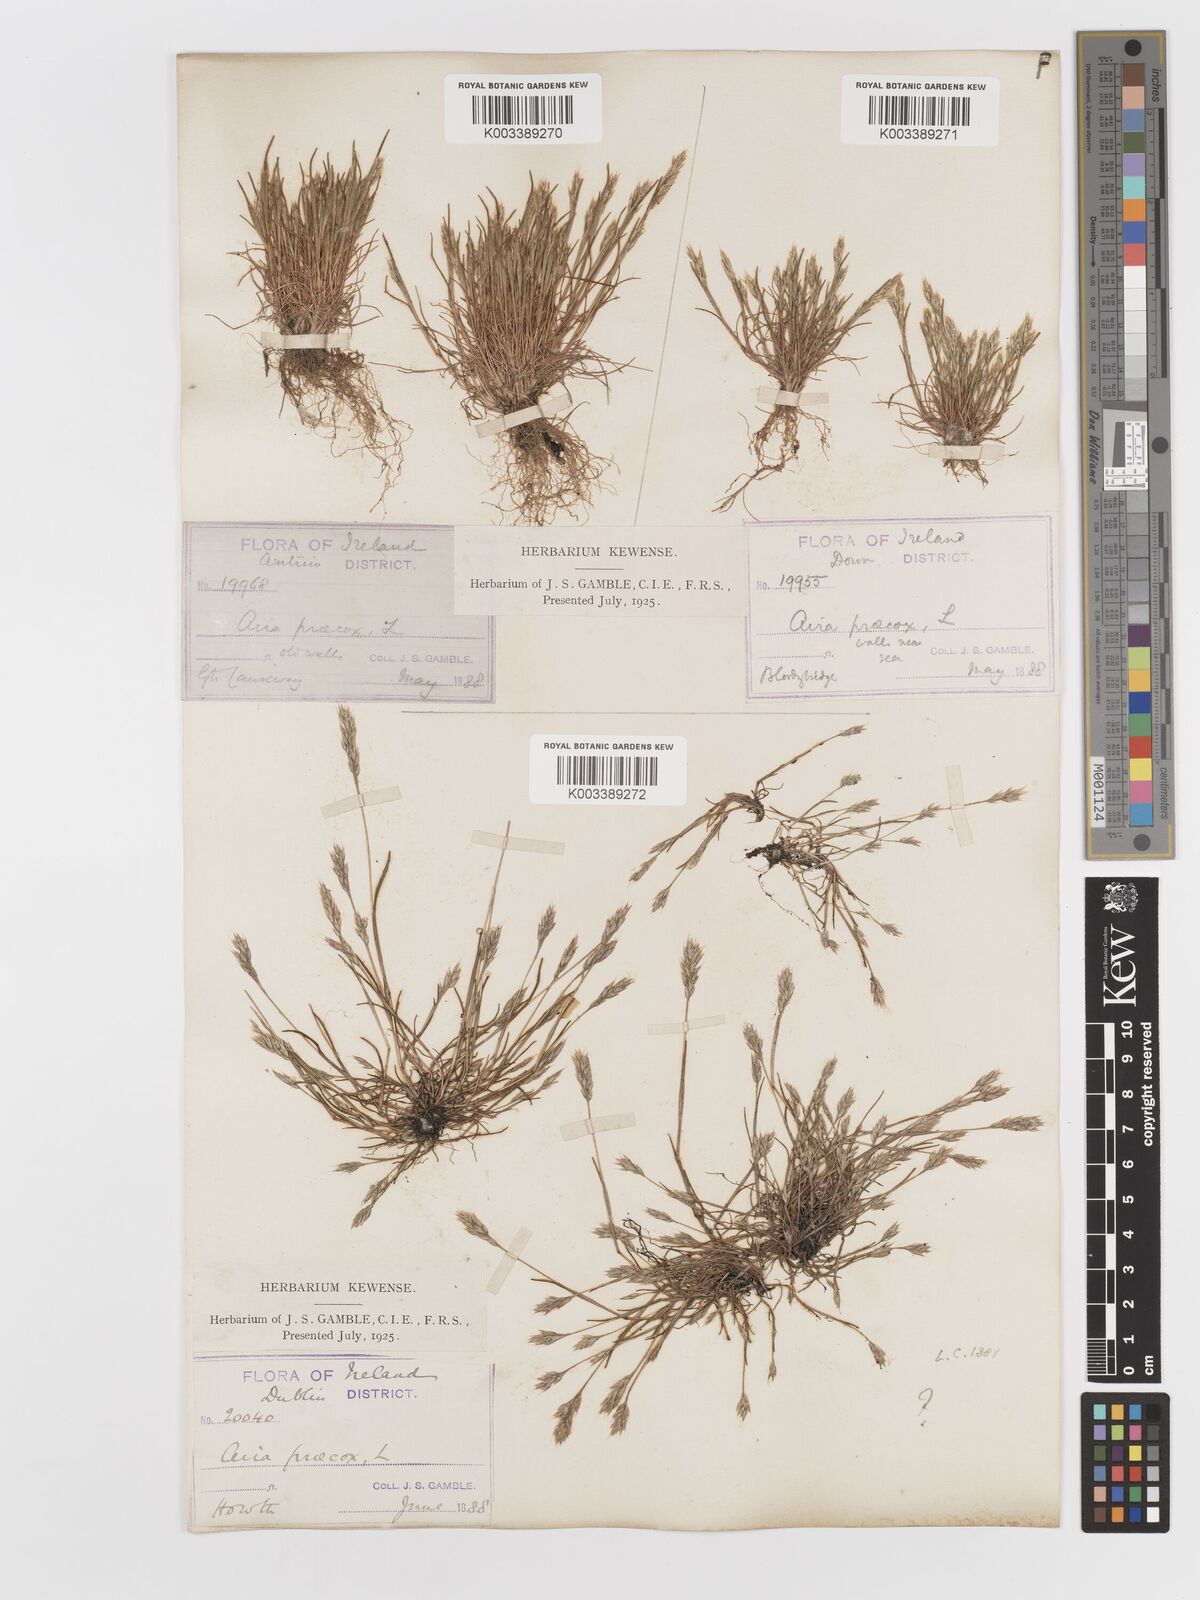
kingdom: Plantae
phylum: Tracheophyta
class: Liliopsida
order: Poales
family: Poaceae
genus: Aira
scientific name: Aira praecox
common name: Early hair-grass
